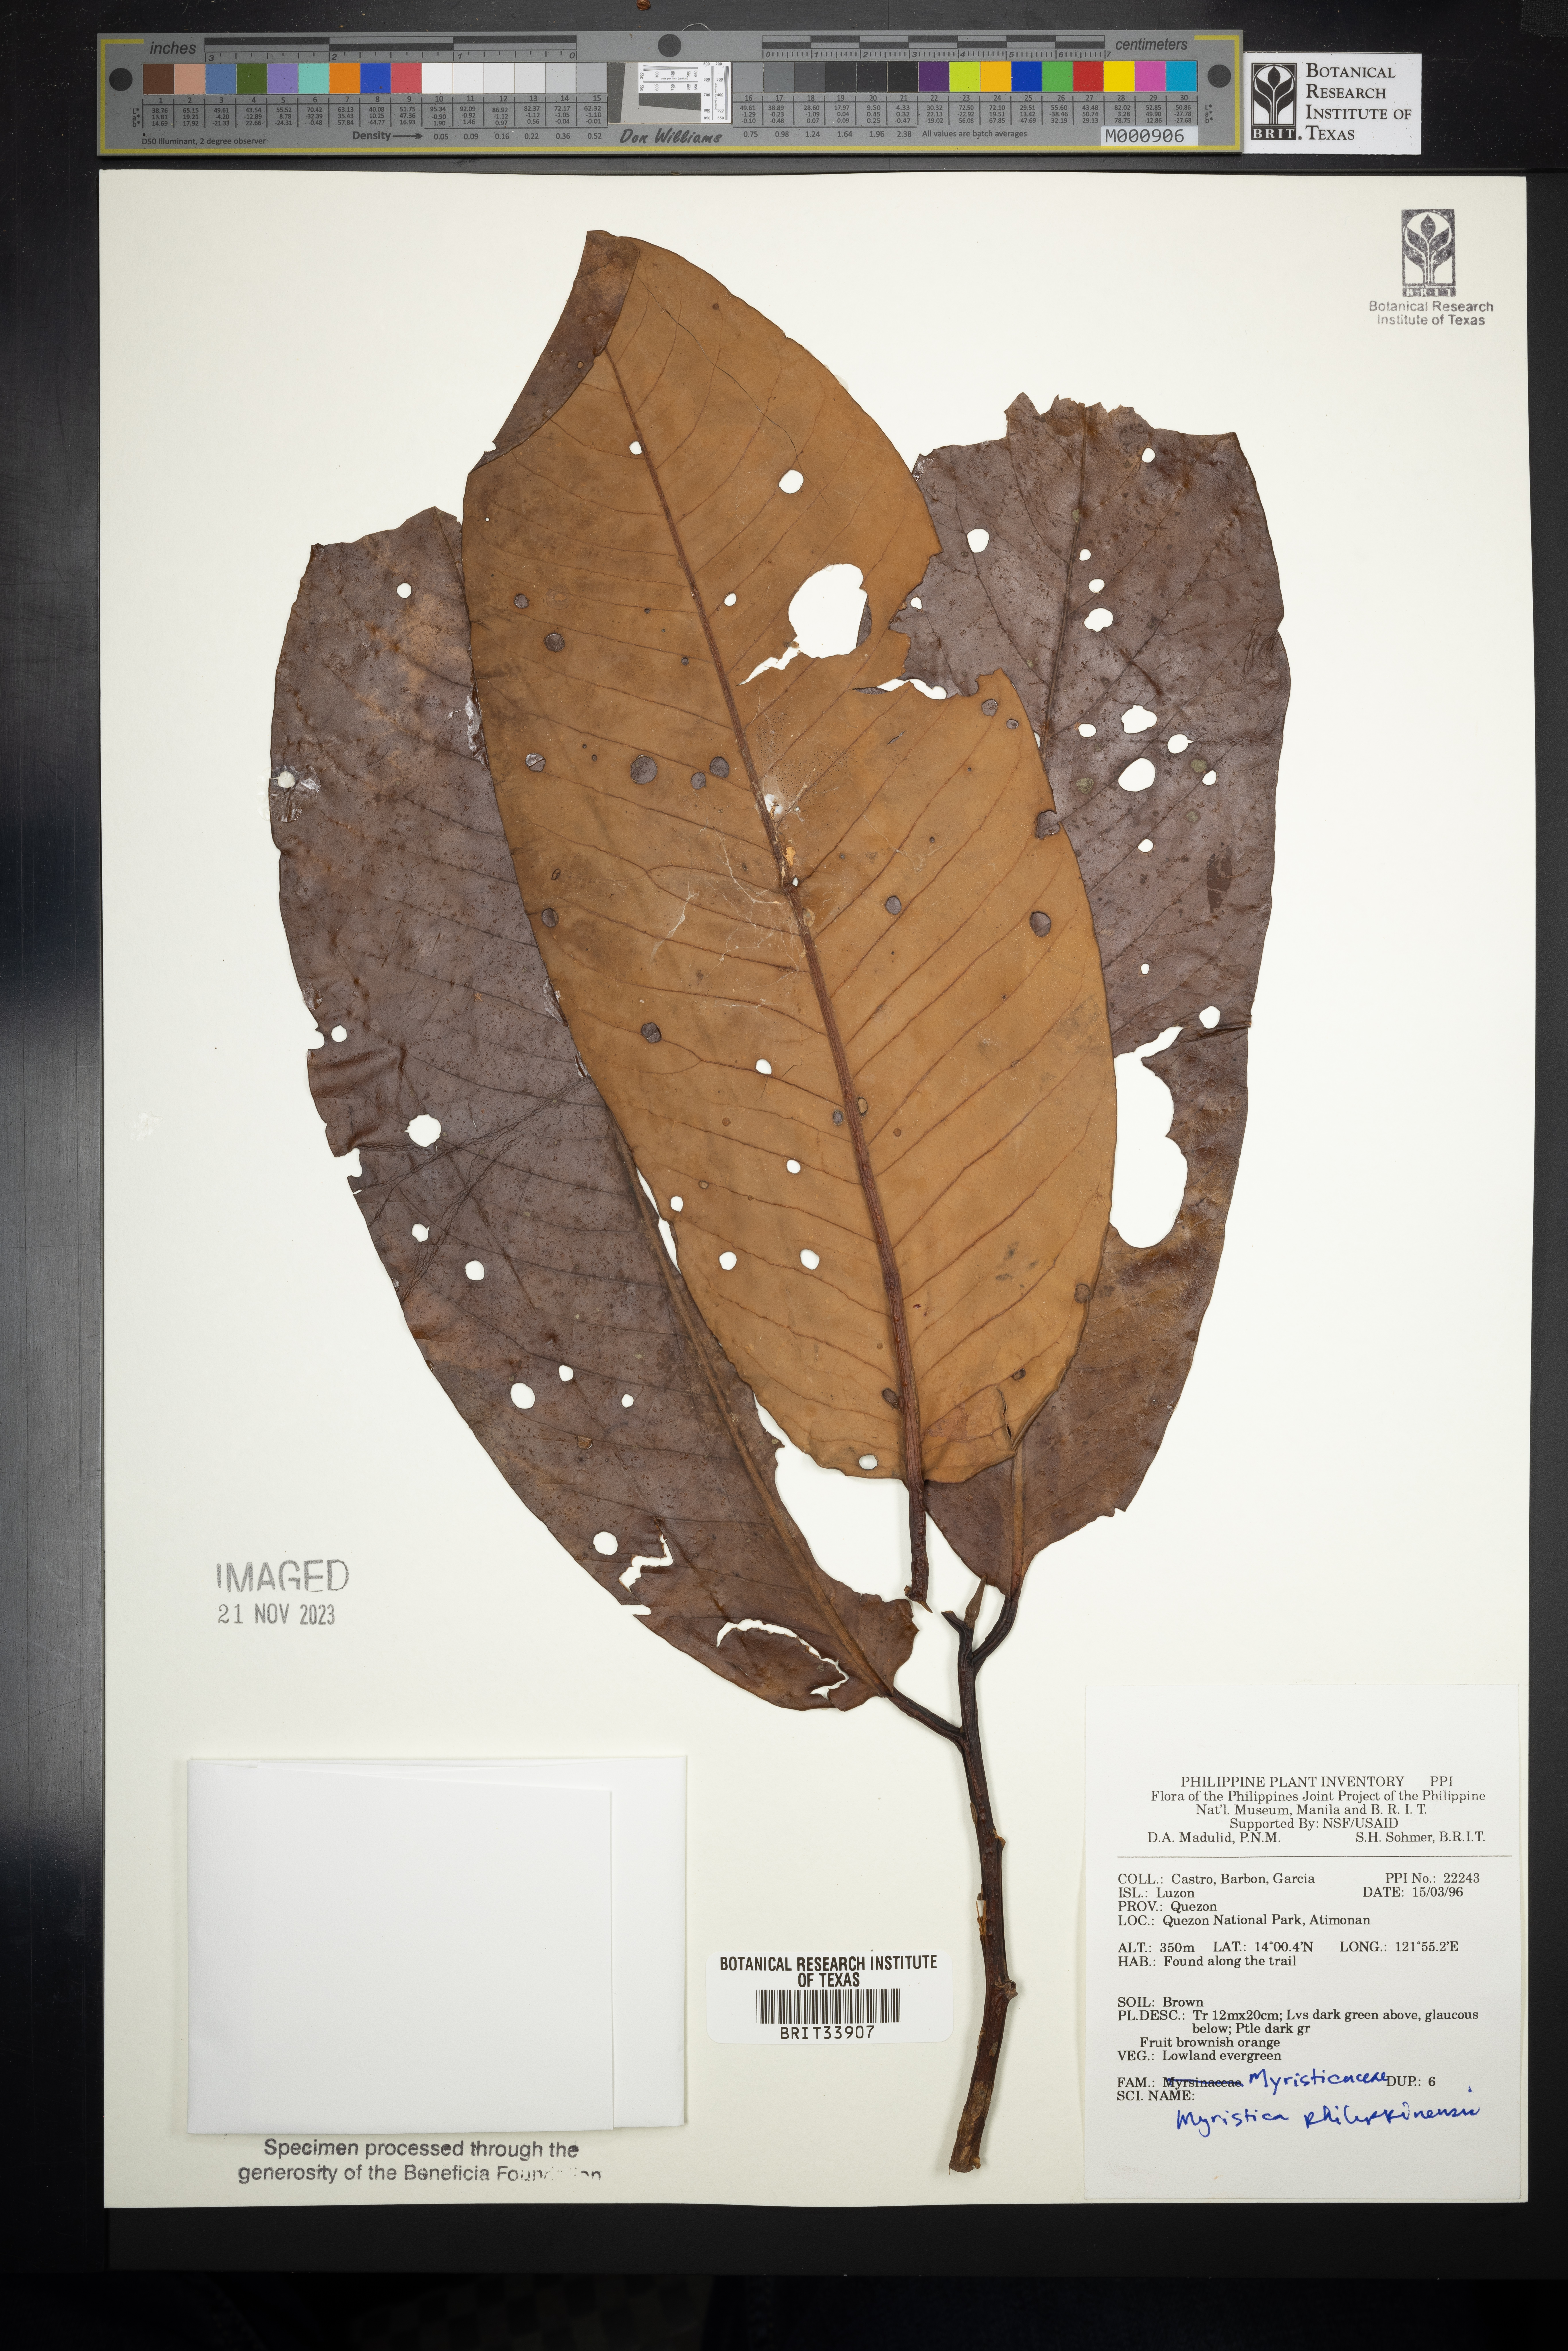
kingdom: Plantae
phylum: Tracheophyta
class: Magnoliopsida
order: Magnoliales
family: Myristicaceae
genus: Myristica
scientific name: Myristica fragrans
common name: Nutmeg
